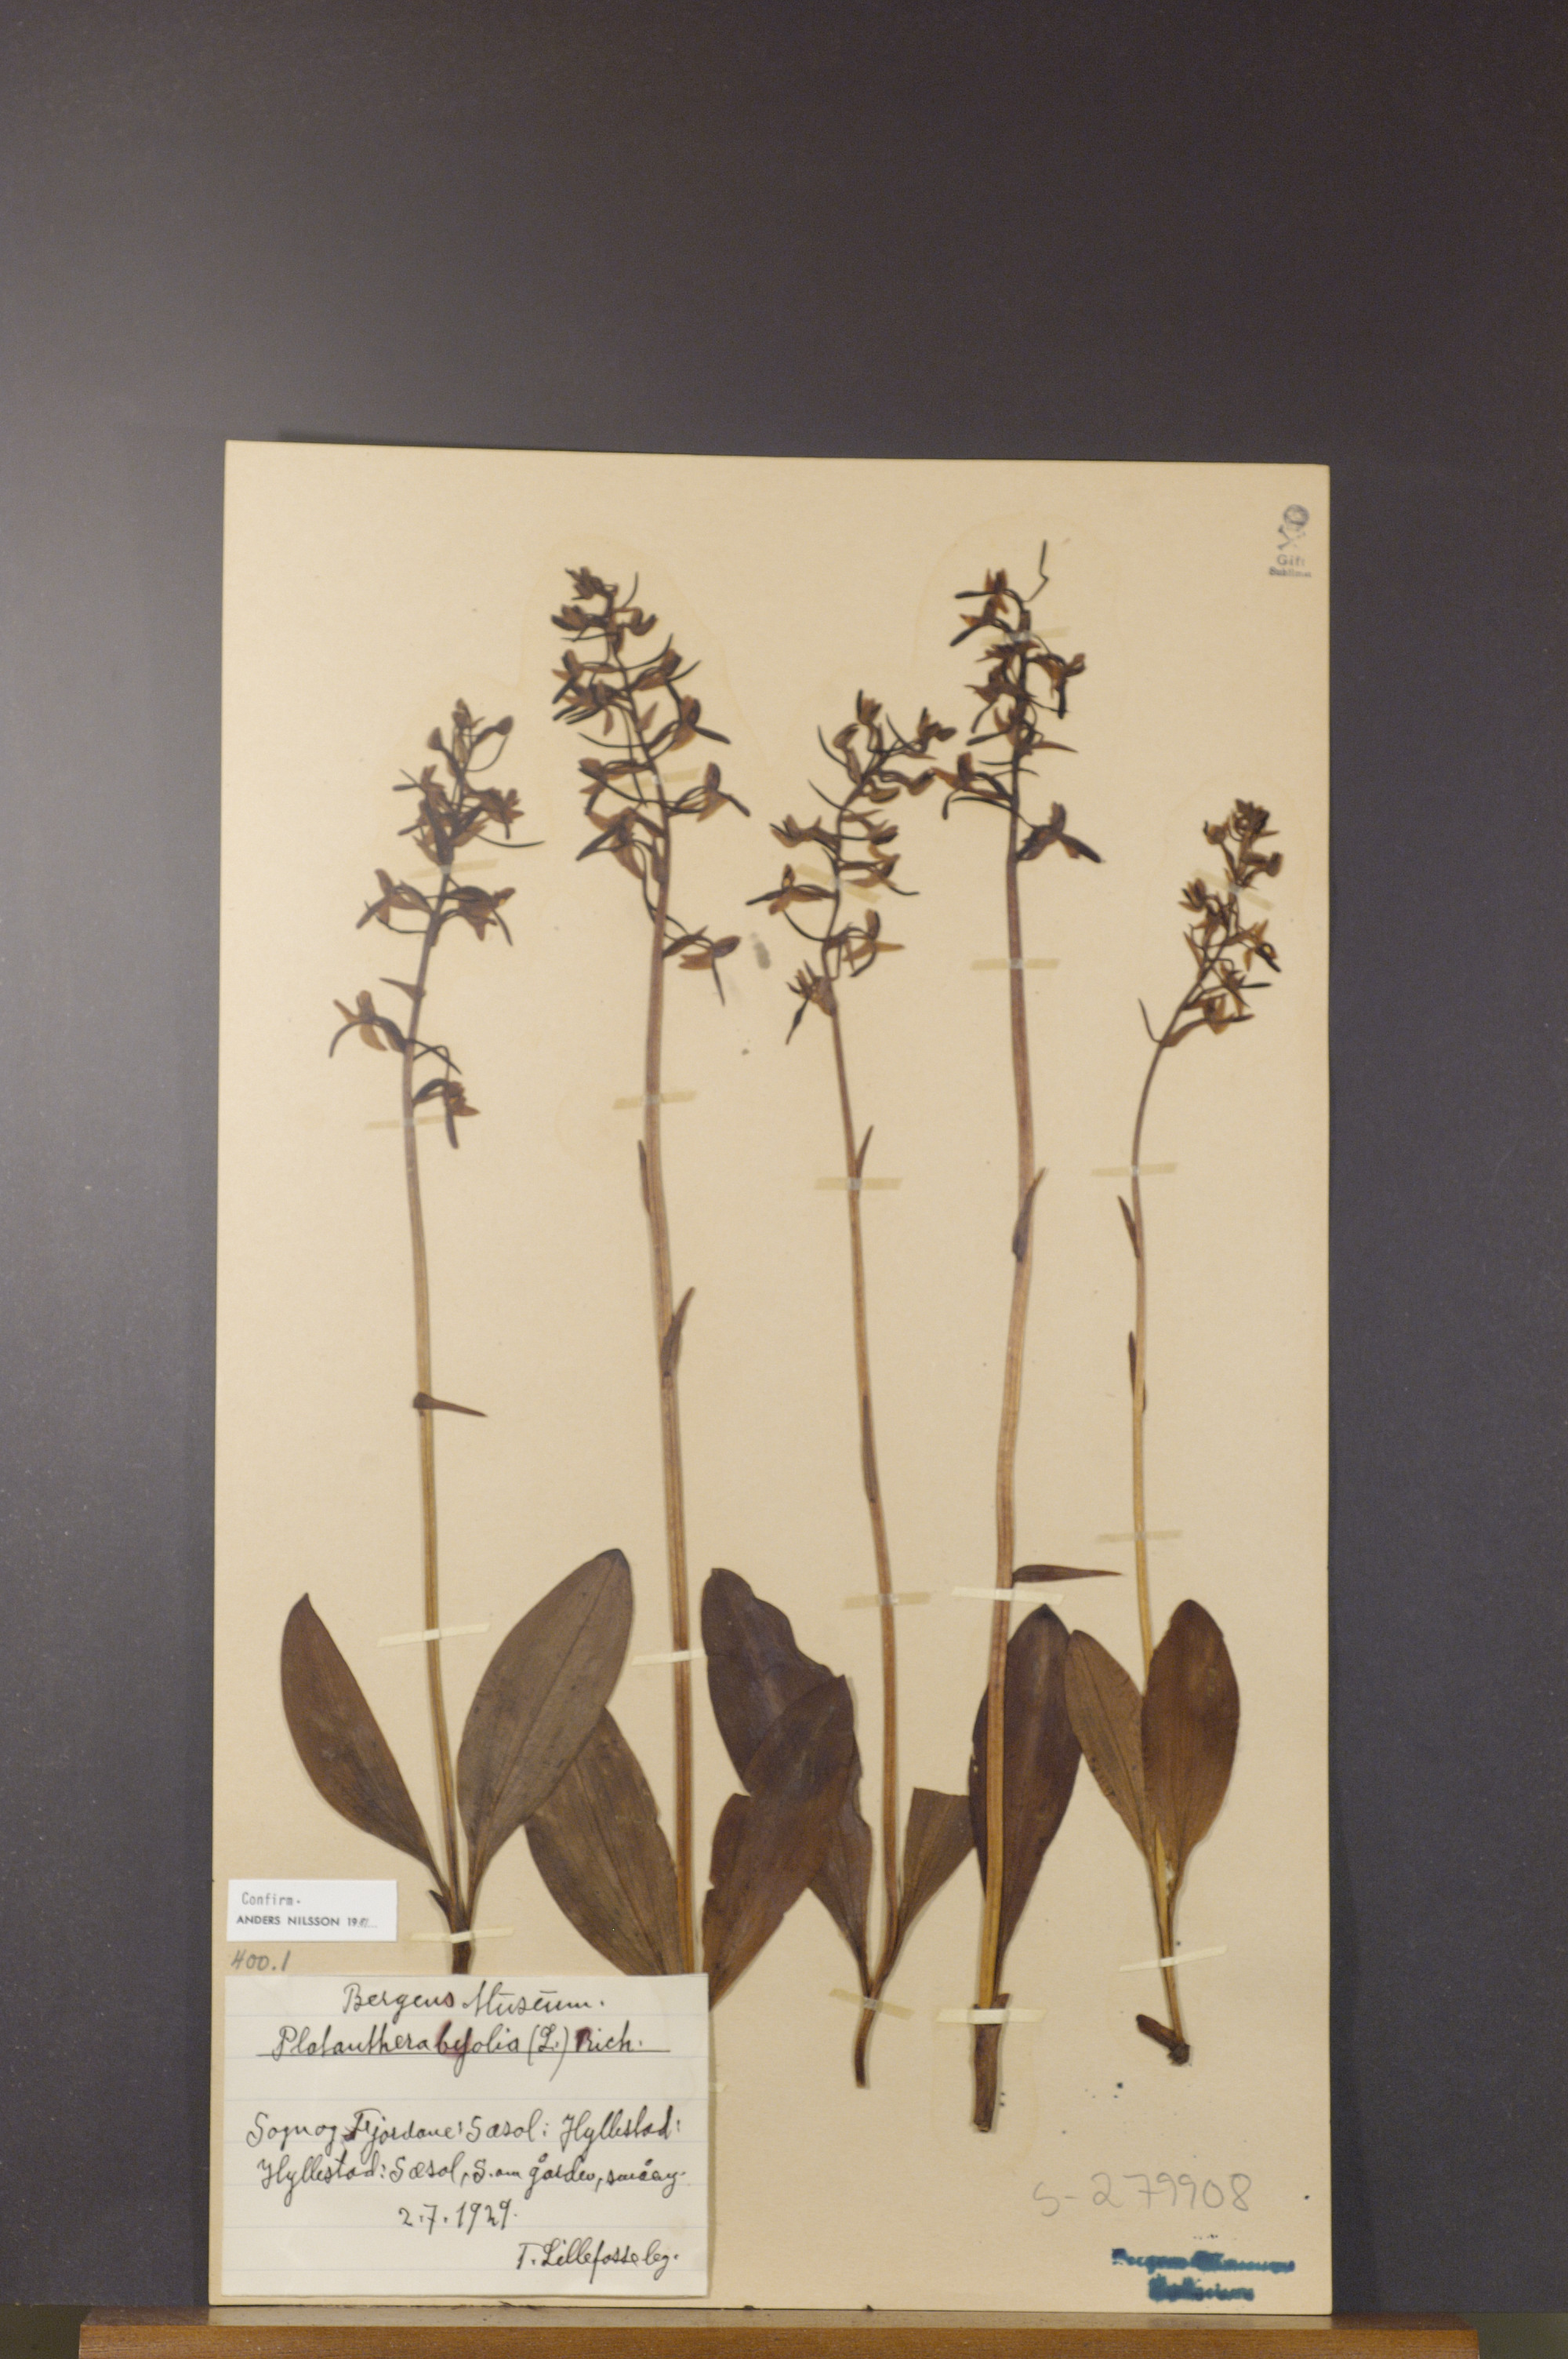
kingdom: Plantae
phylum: Tracheophyta
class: Liliopsida
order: Asparagales
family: Orchidaceae
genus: Platanthera
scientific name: Platanthera bifolia
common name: Lesser butterfly-orchid
